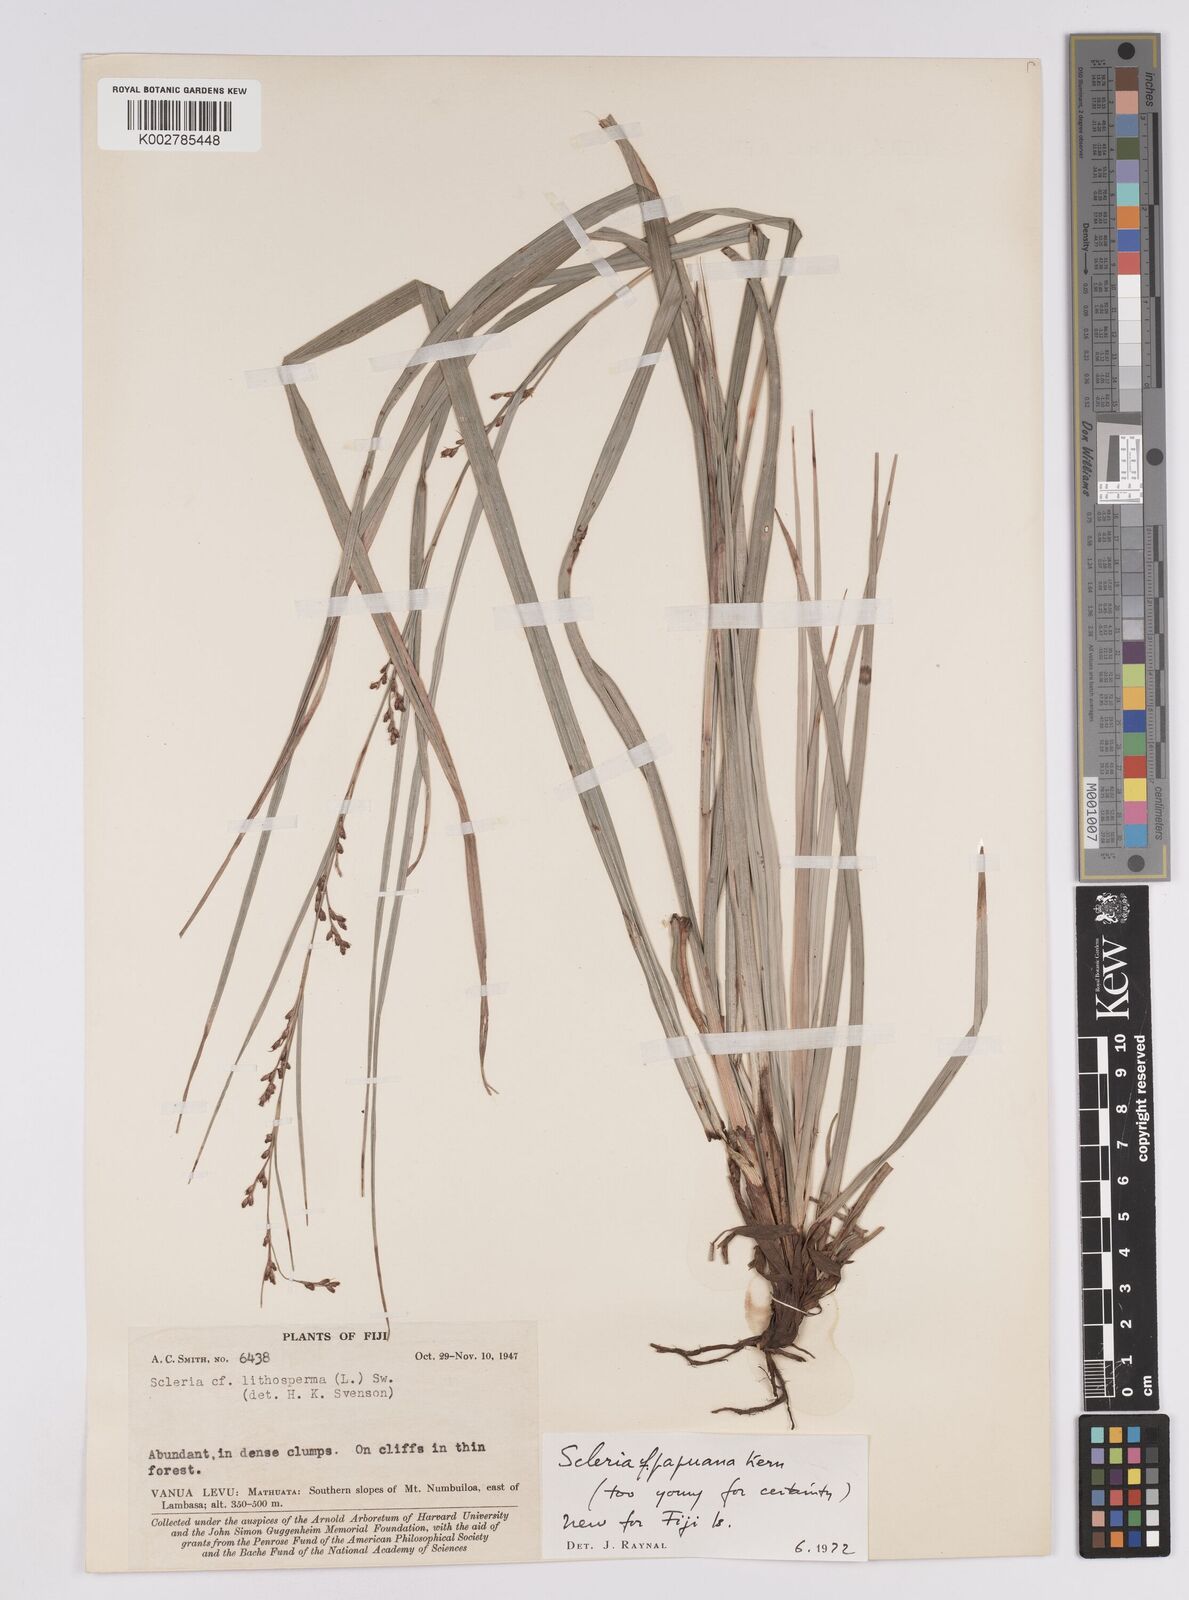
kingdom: Plantae
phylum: Tracheophyta
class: Liliopsida
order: Poales
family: Cyperaceae
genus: Scleria
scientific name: Scleria papuana
